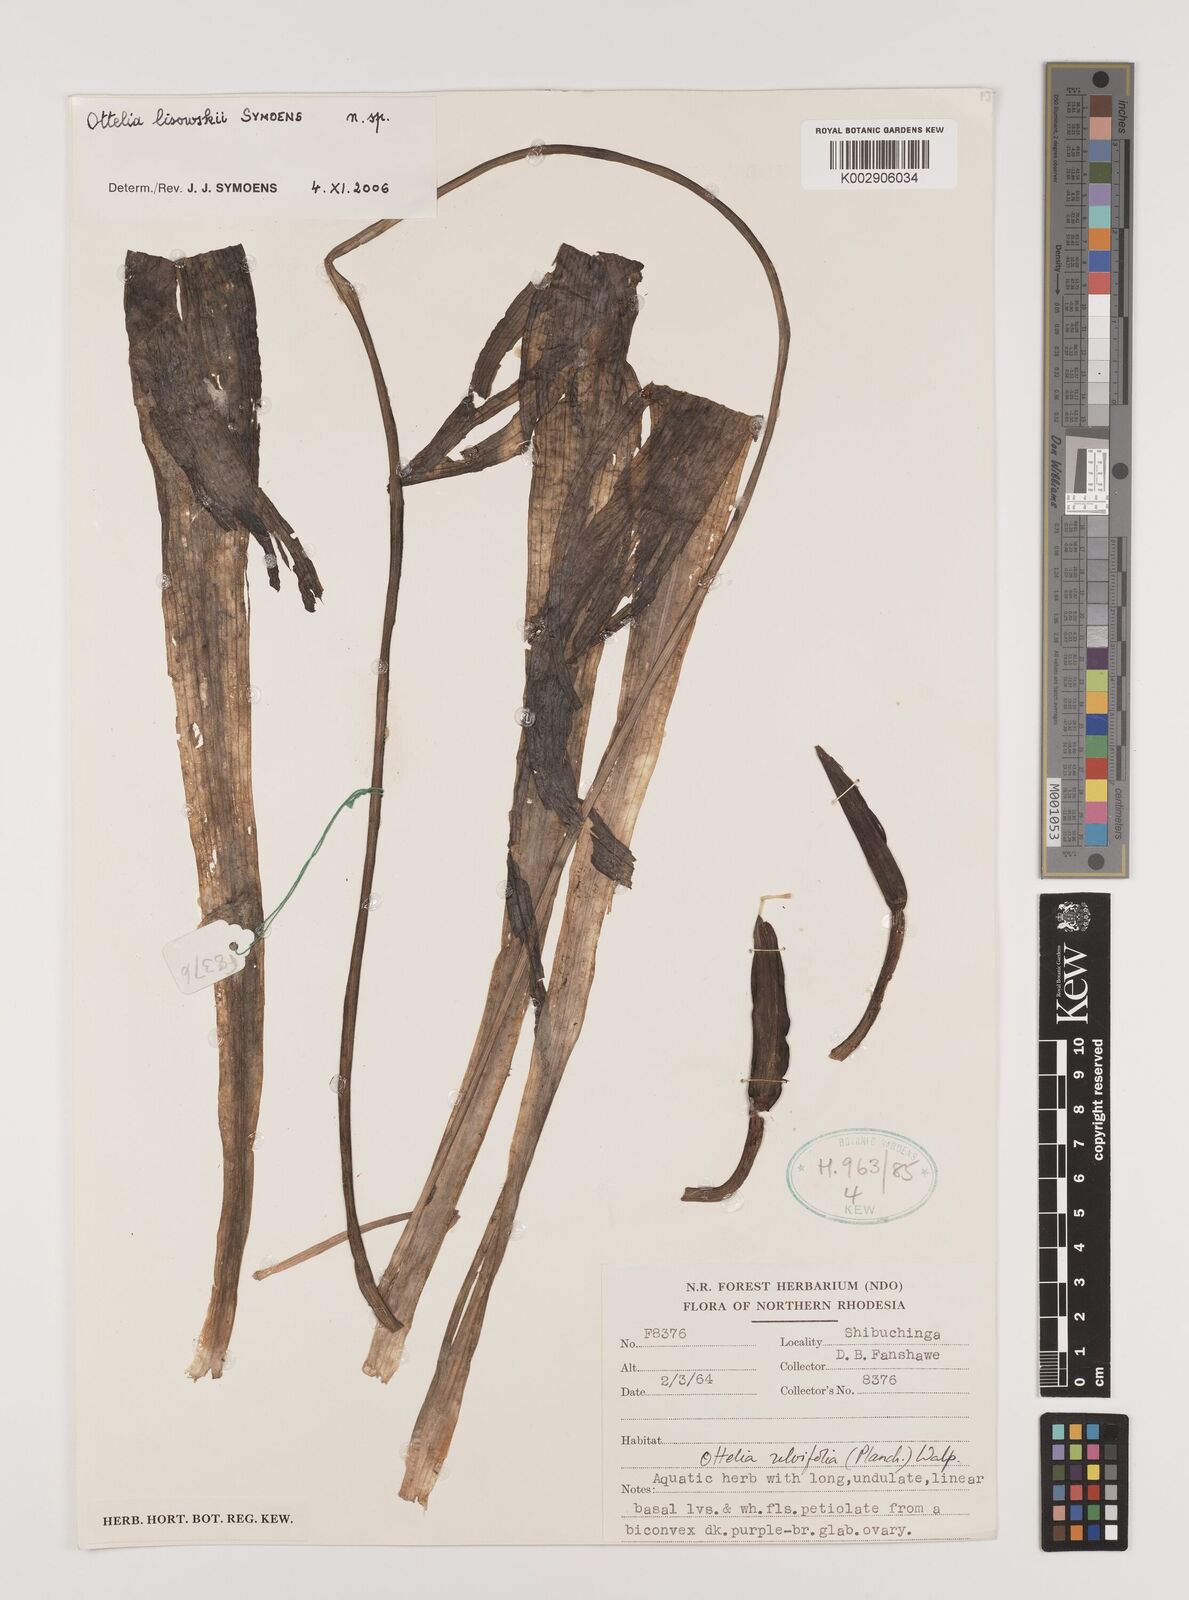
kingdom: Plantae
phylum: Tracheophyta
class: Liliopsida
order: Alismatales
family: Hydrocharitaceae
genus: Ottelia
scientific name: Ottelia lisowskii
